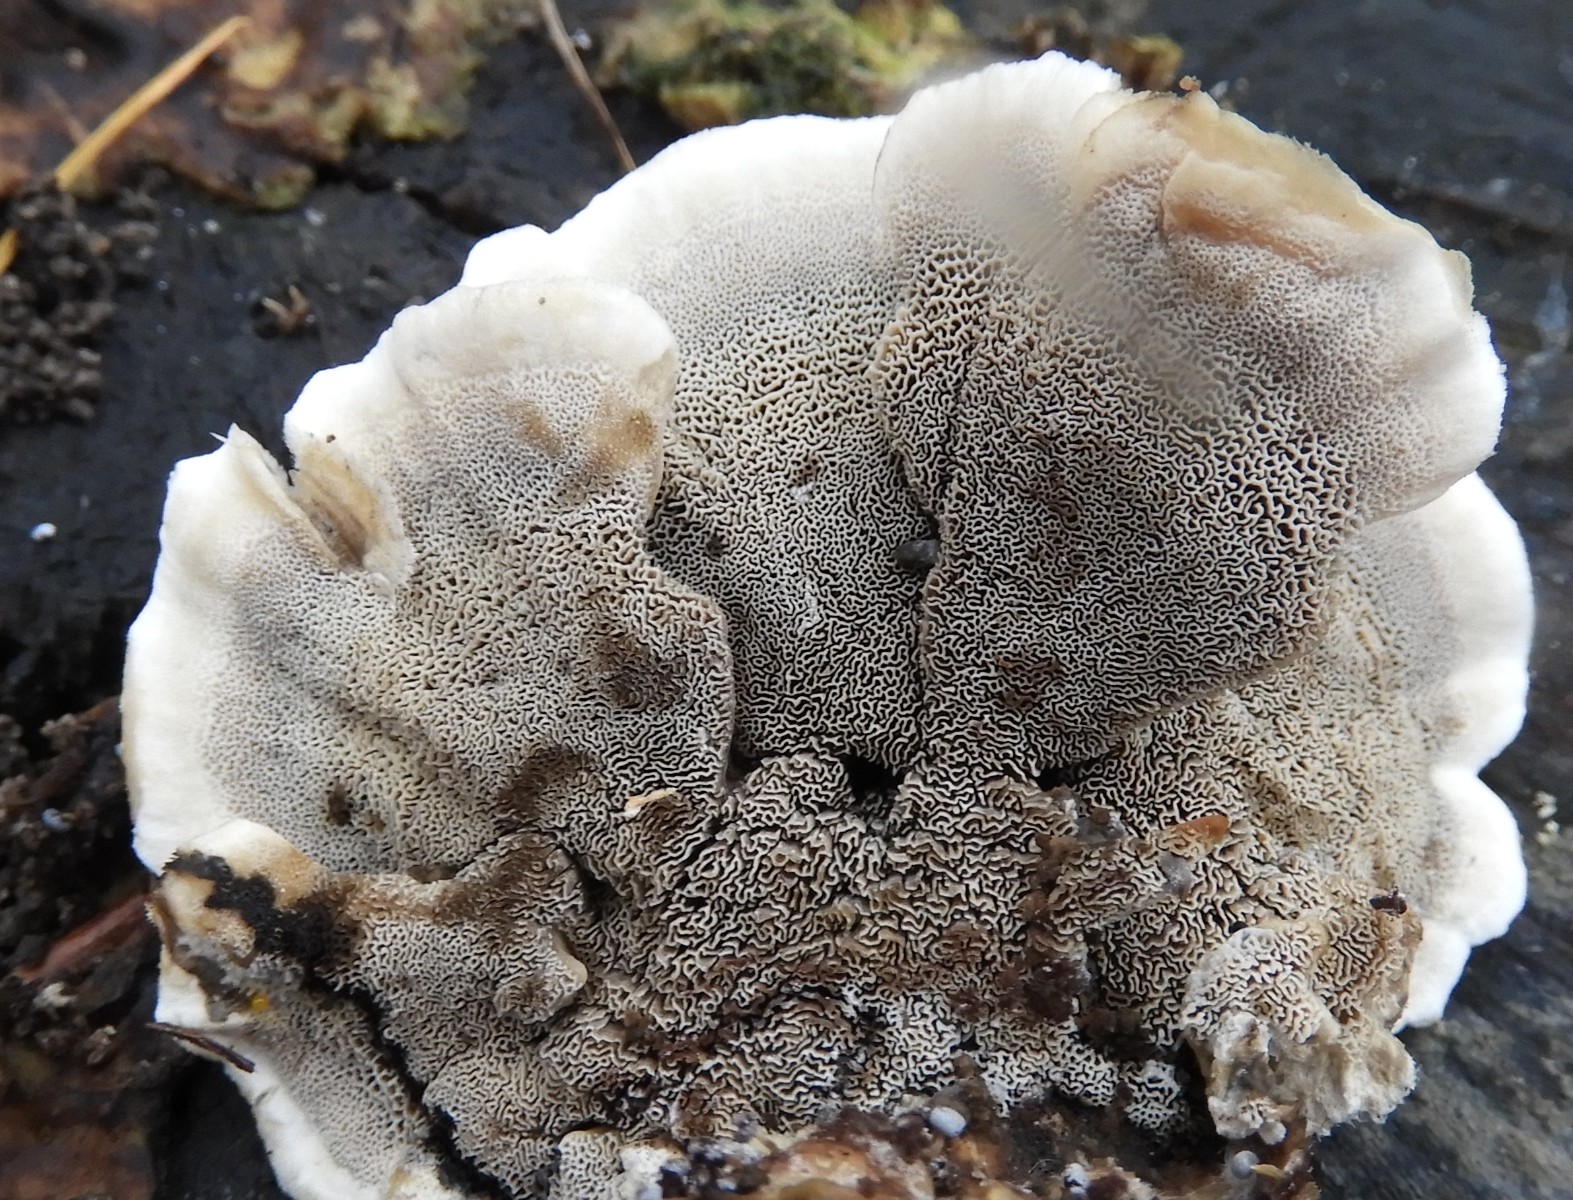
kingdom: Fungi
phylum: Basidiomycota
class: Agaricomycetes
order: Polyporales
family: Phanerochaetaceae
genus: Bjerkandera
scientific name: Bjerkandera adusta
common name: sveden sodporesvamp
